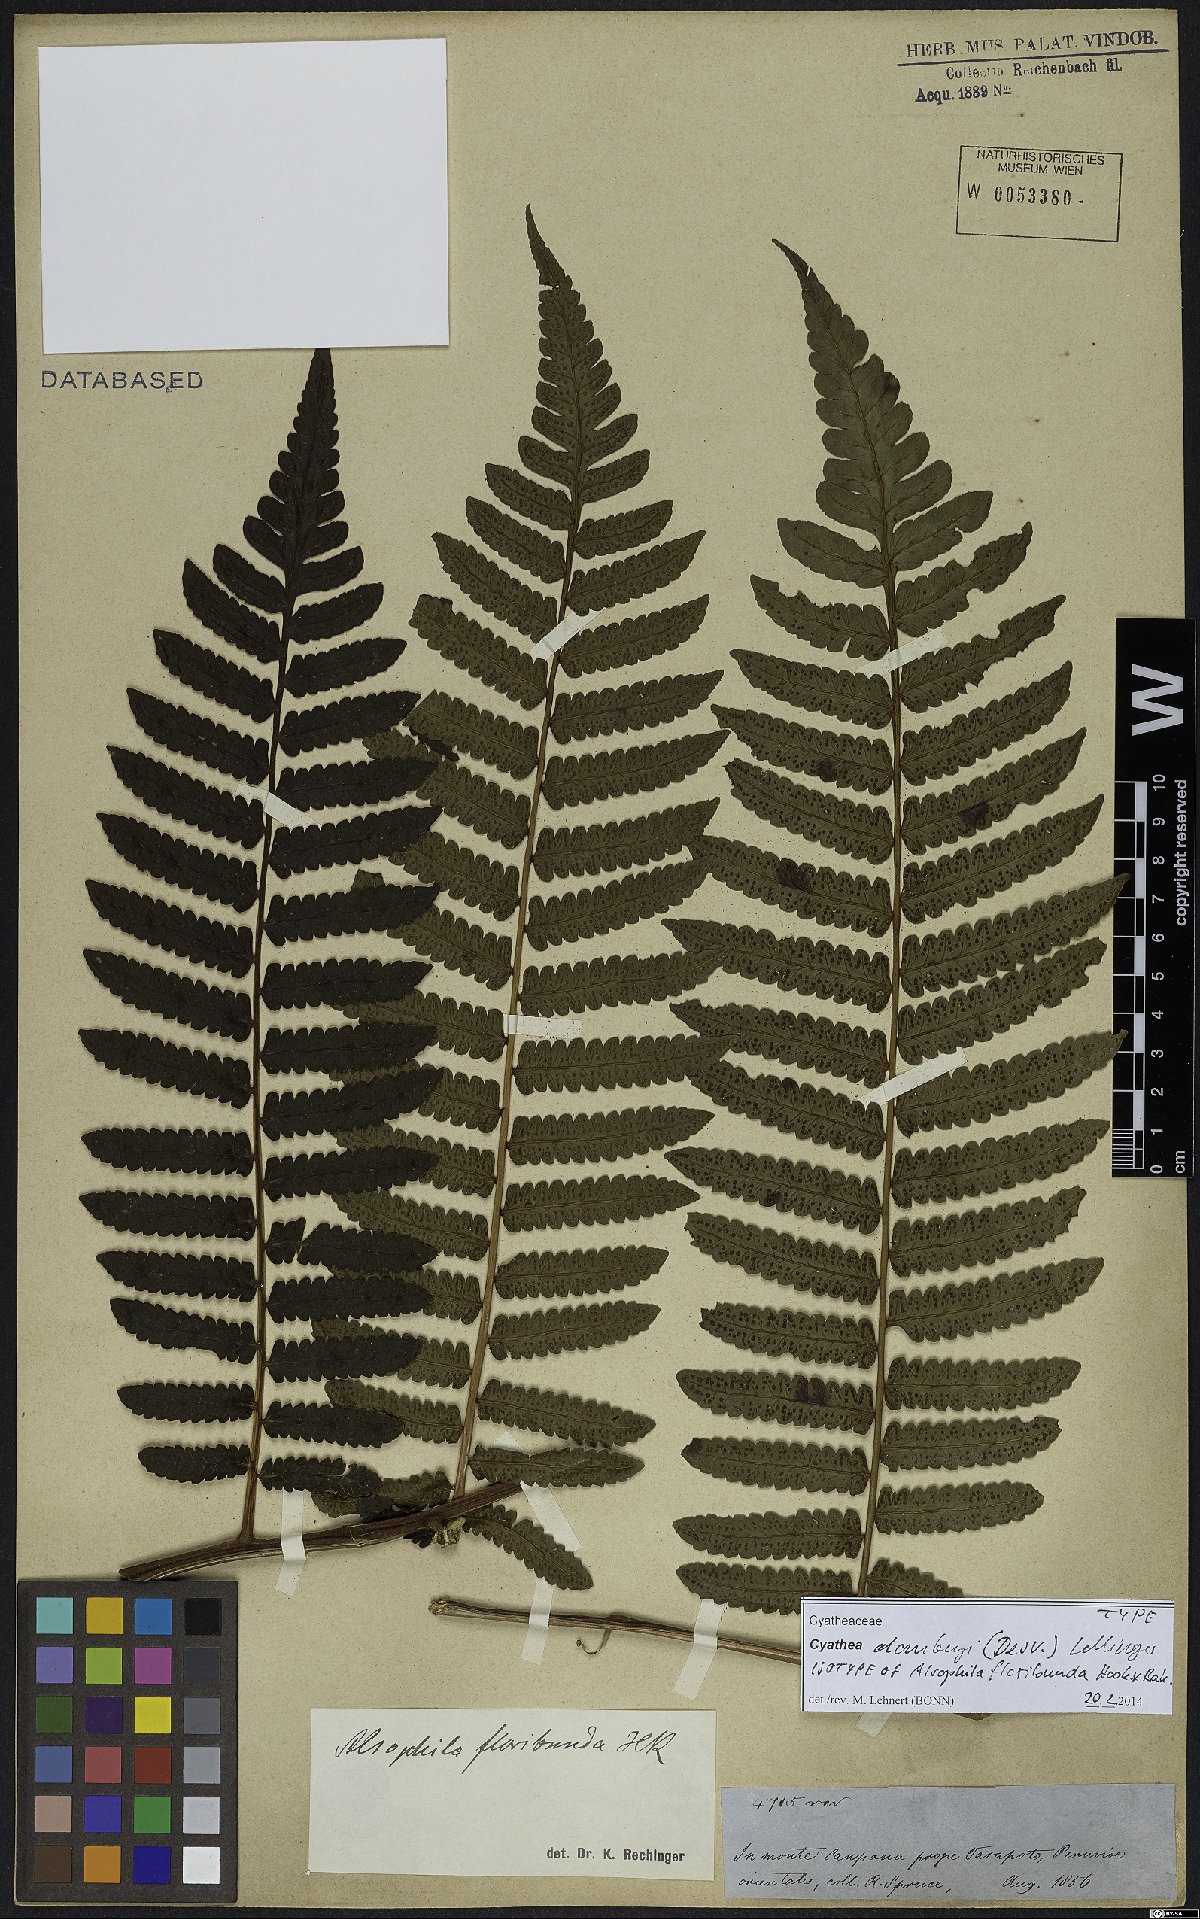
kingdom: Plantae
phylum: Tracheophyta
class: Polypodiopsida
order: Cyatheales
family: Cyatheaceae
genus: Cyathea
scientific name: Cyathea dombeyi
